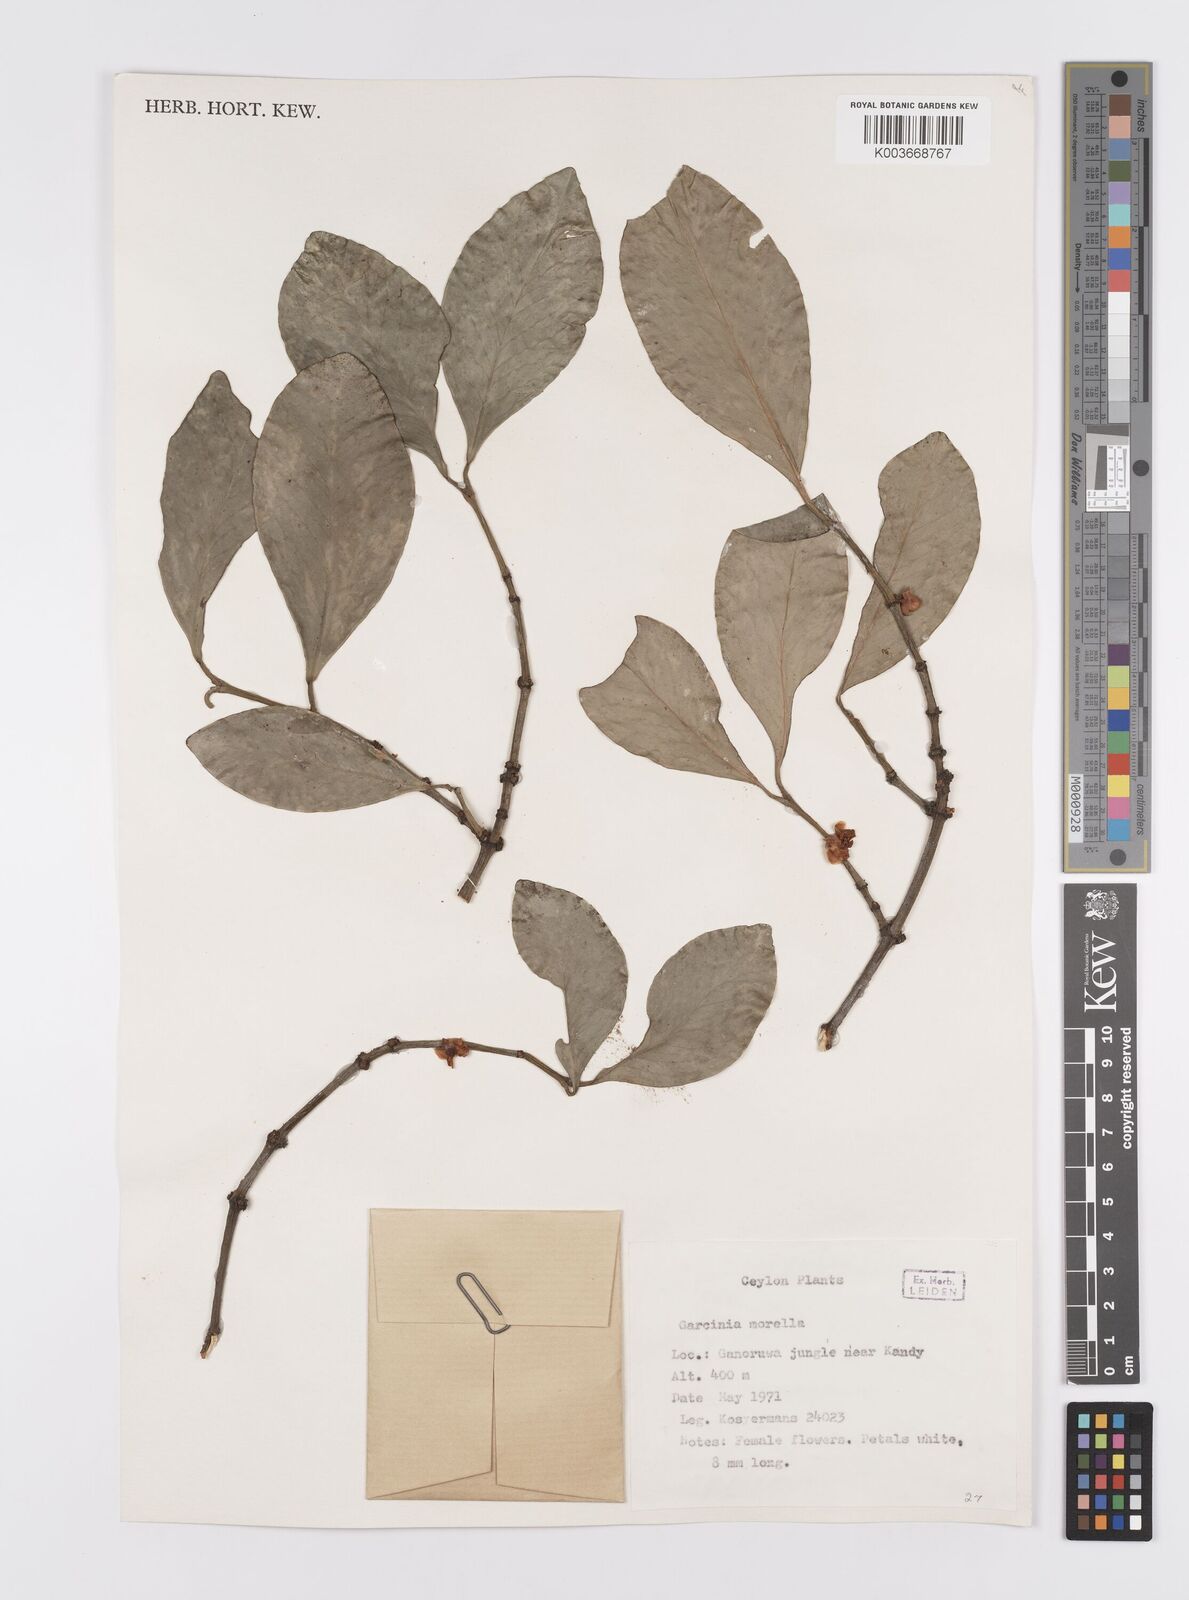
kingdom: Plantae
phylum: Tracheophyta
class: Magnoliopsida
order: Malpighiales
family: Clusiaceae
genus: Garcinia
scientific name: Garcinia morella
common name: Indian gamboge-tree
